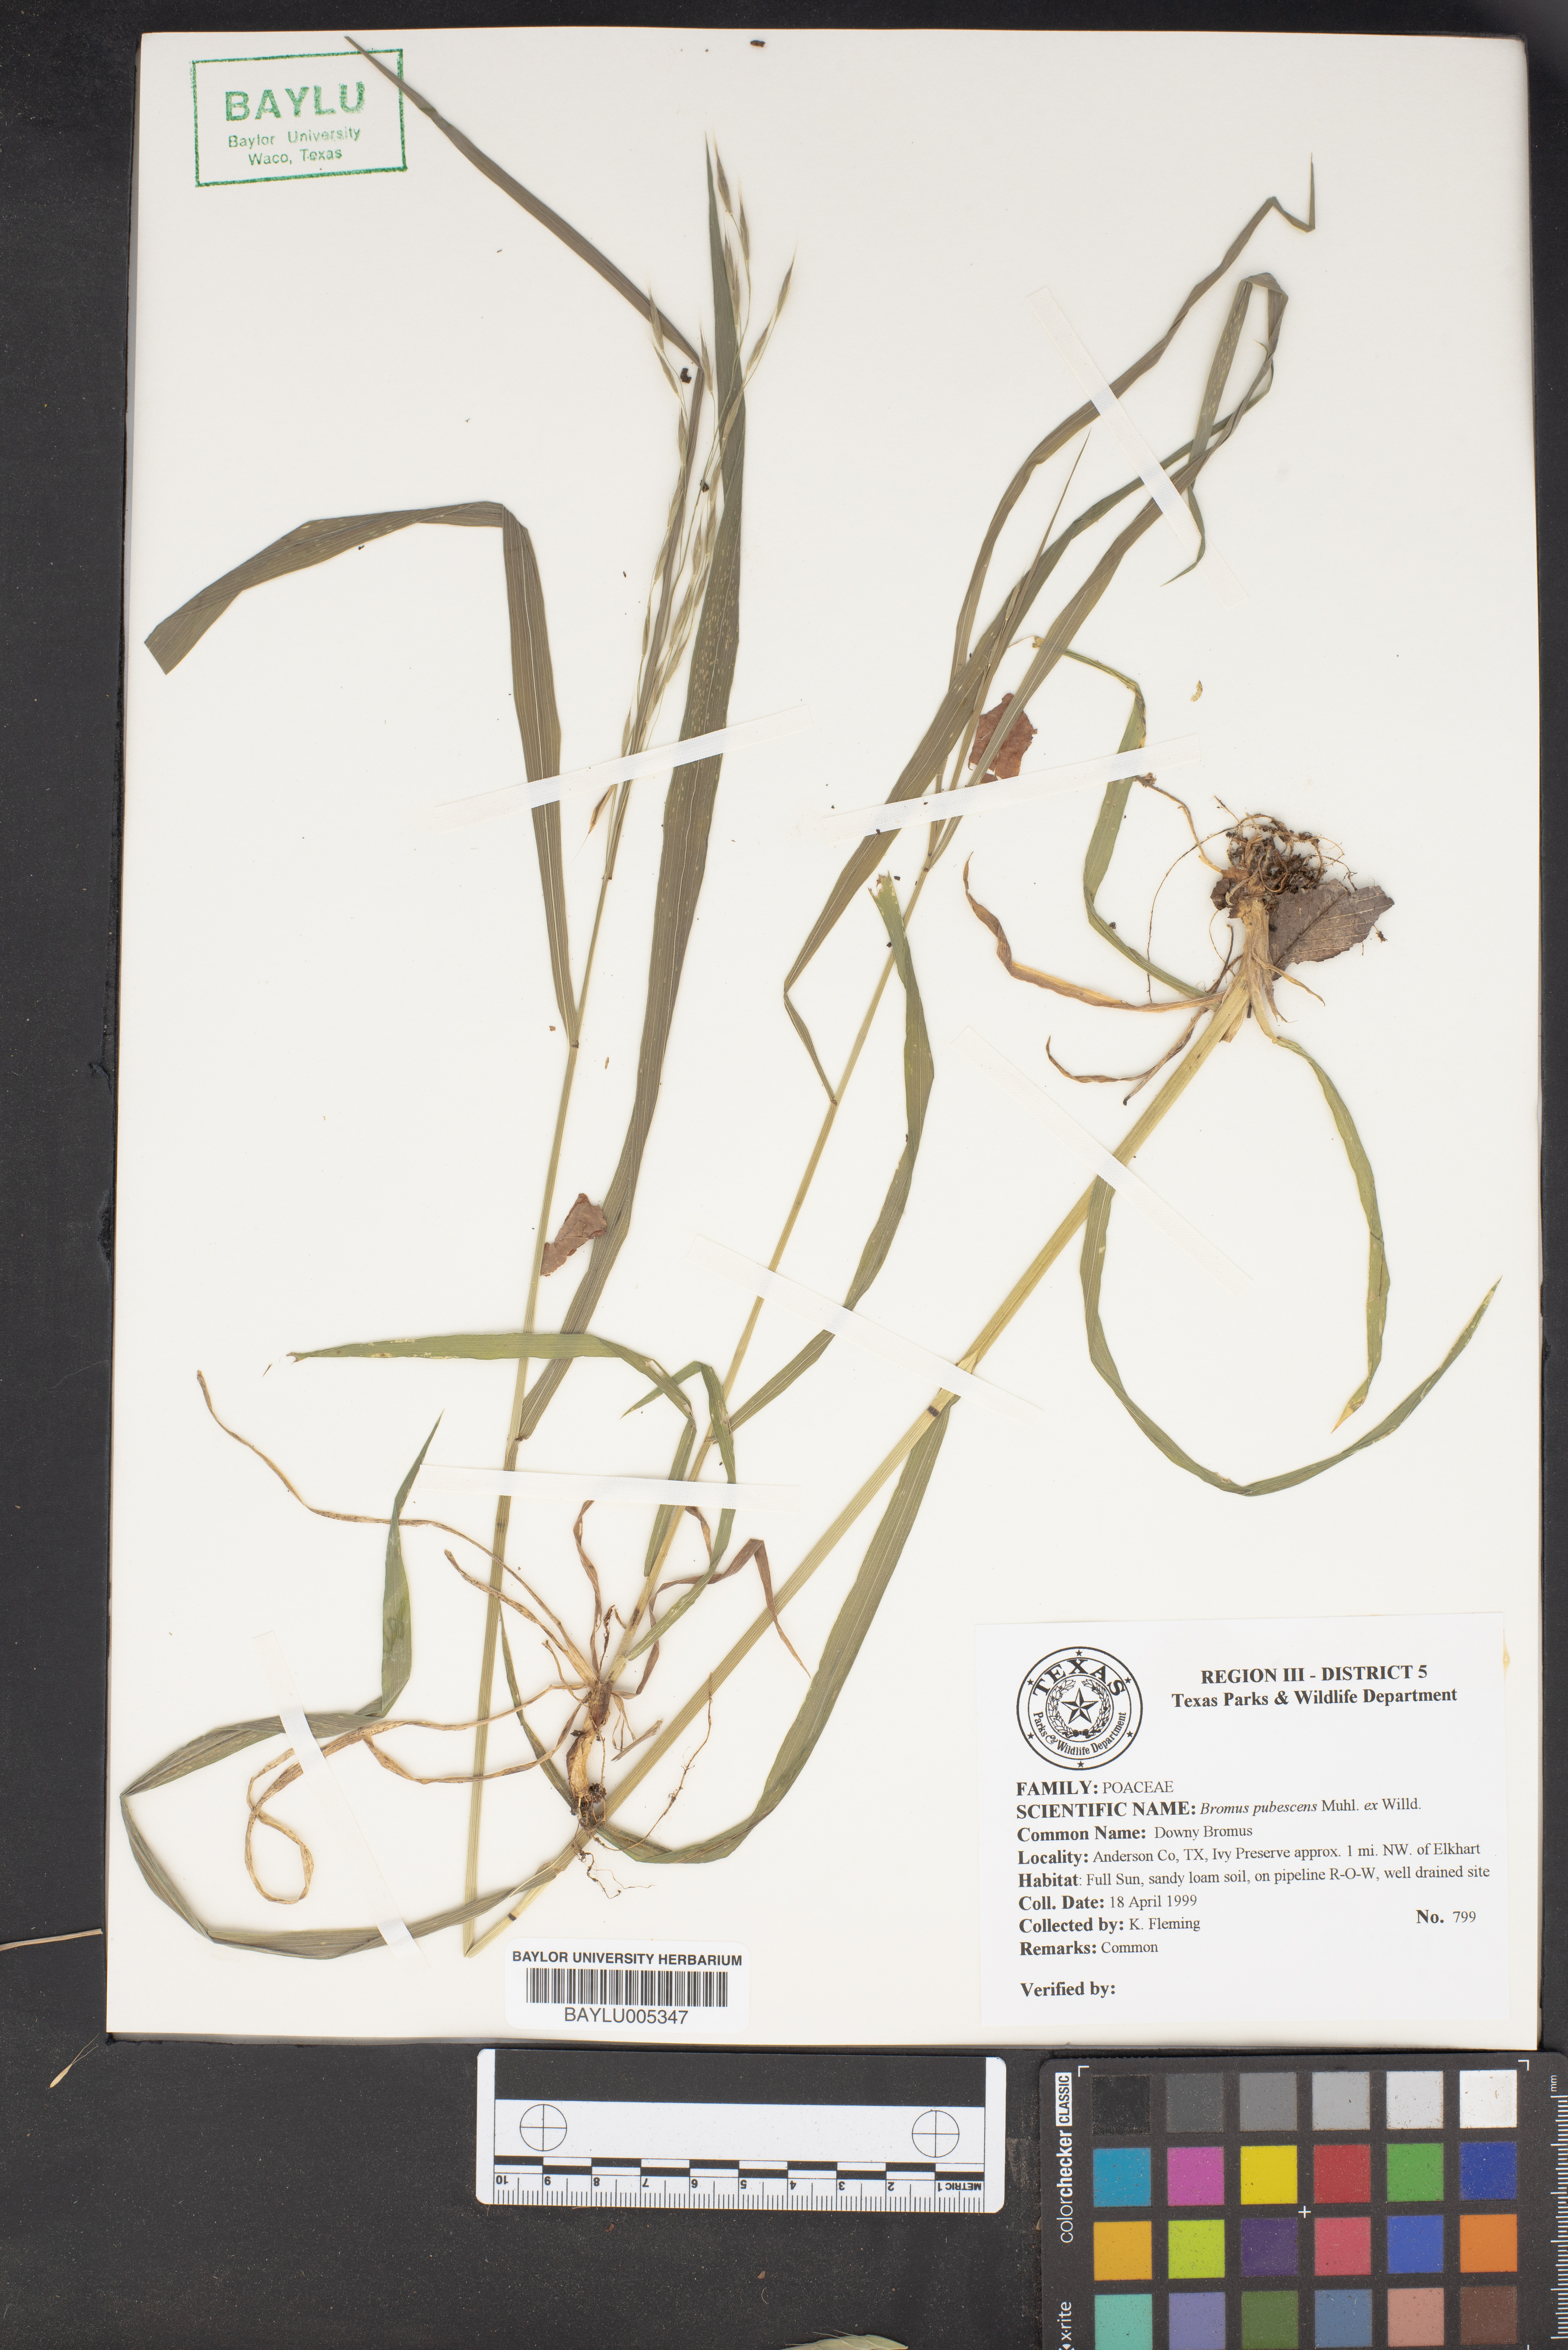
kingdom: Plantae
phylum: Tracheophyta
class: Liliopsida
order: Poales
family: Poaceae
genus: Bromus
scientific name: Bromus pubescens
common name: Hairy wood brome grass
